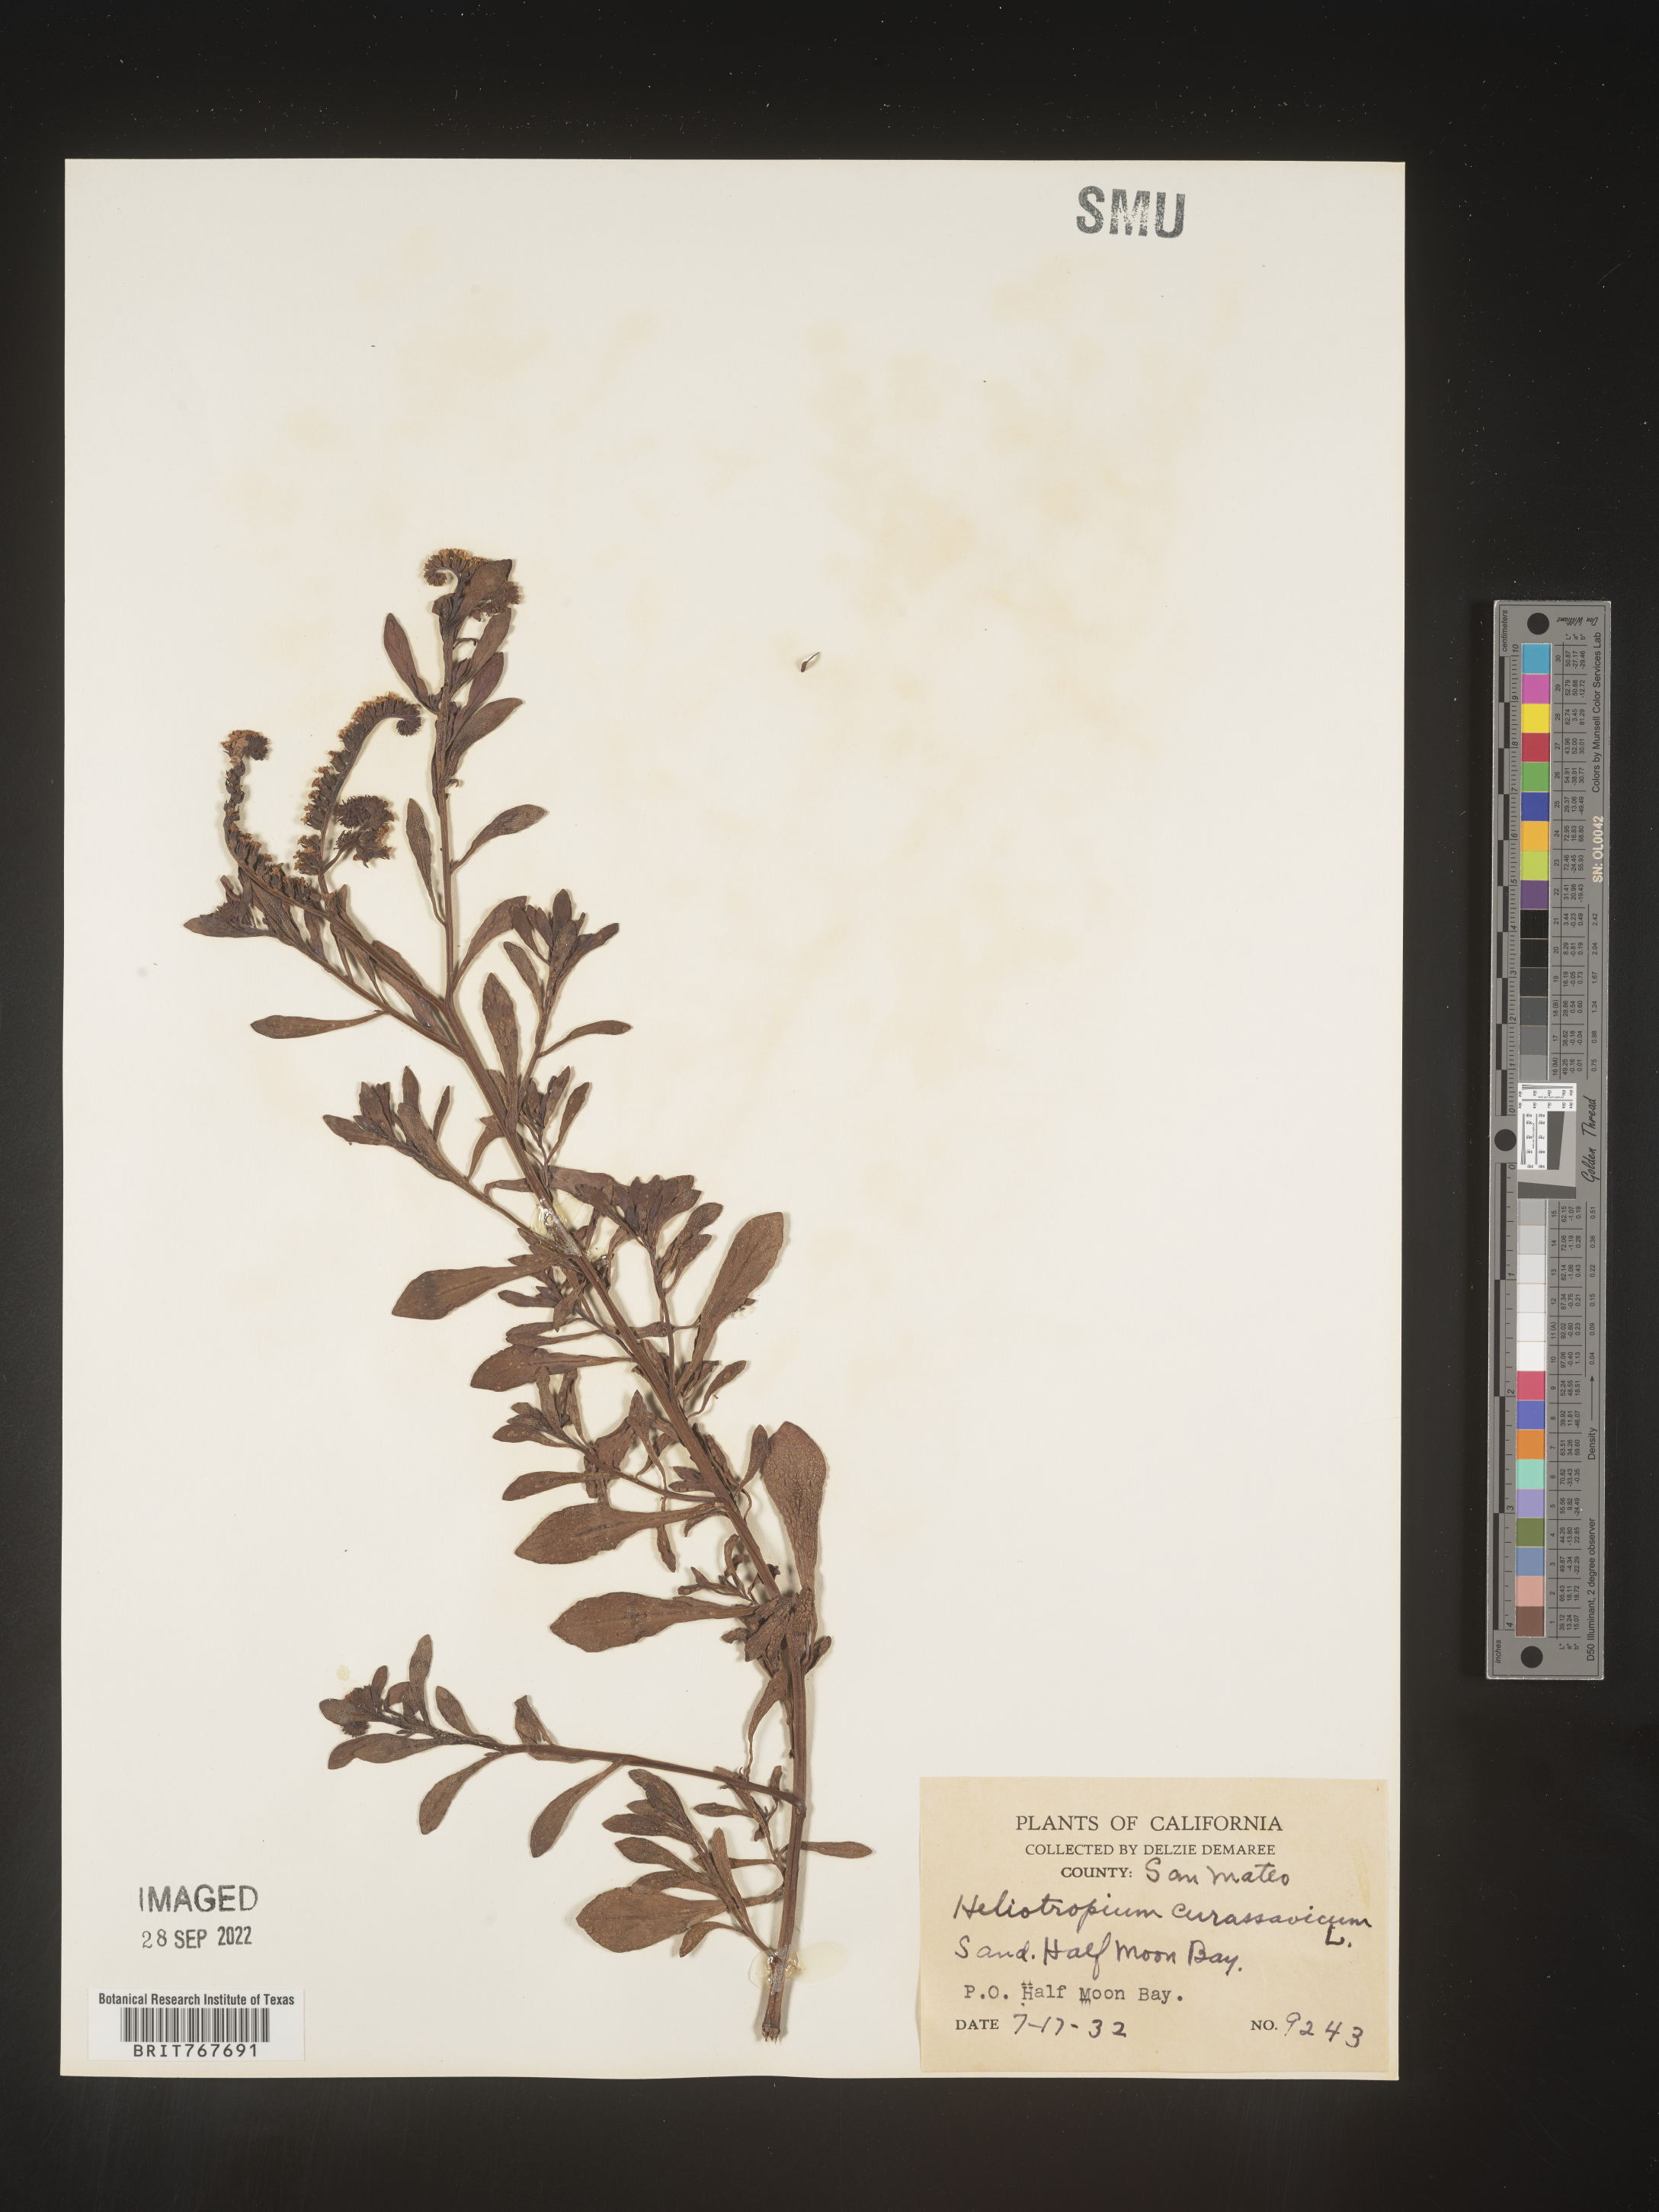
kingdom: Plantae
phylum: Tracheophyta
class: Magnoliopsida
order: Boraginales
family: Heliotropiaceae
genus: Heliotropium
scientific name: Heliotropium curassavicum
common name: Seaside heliotrope
